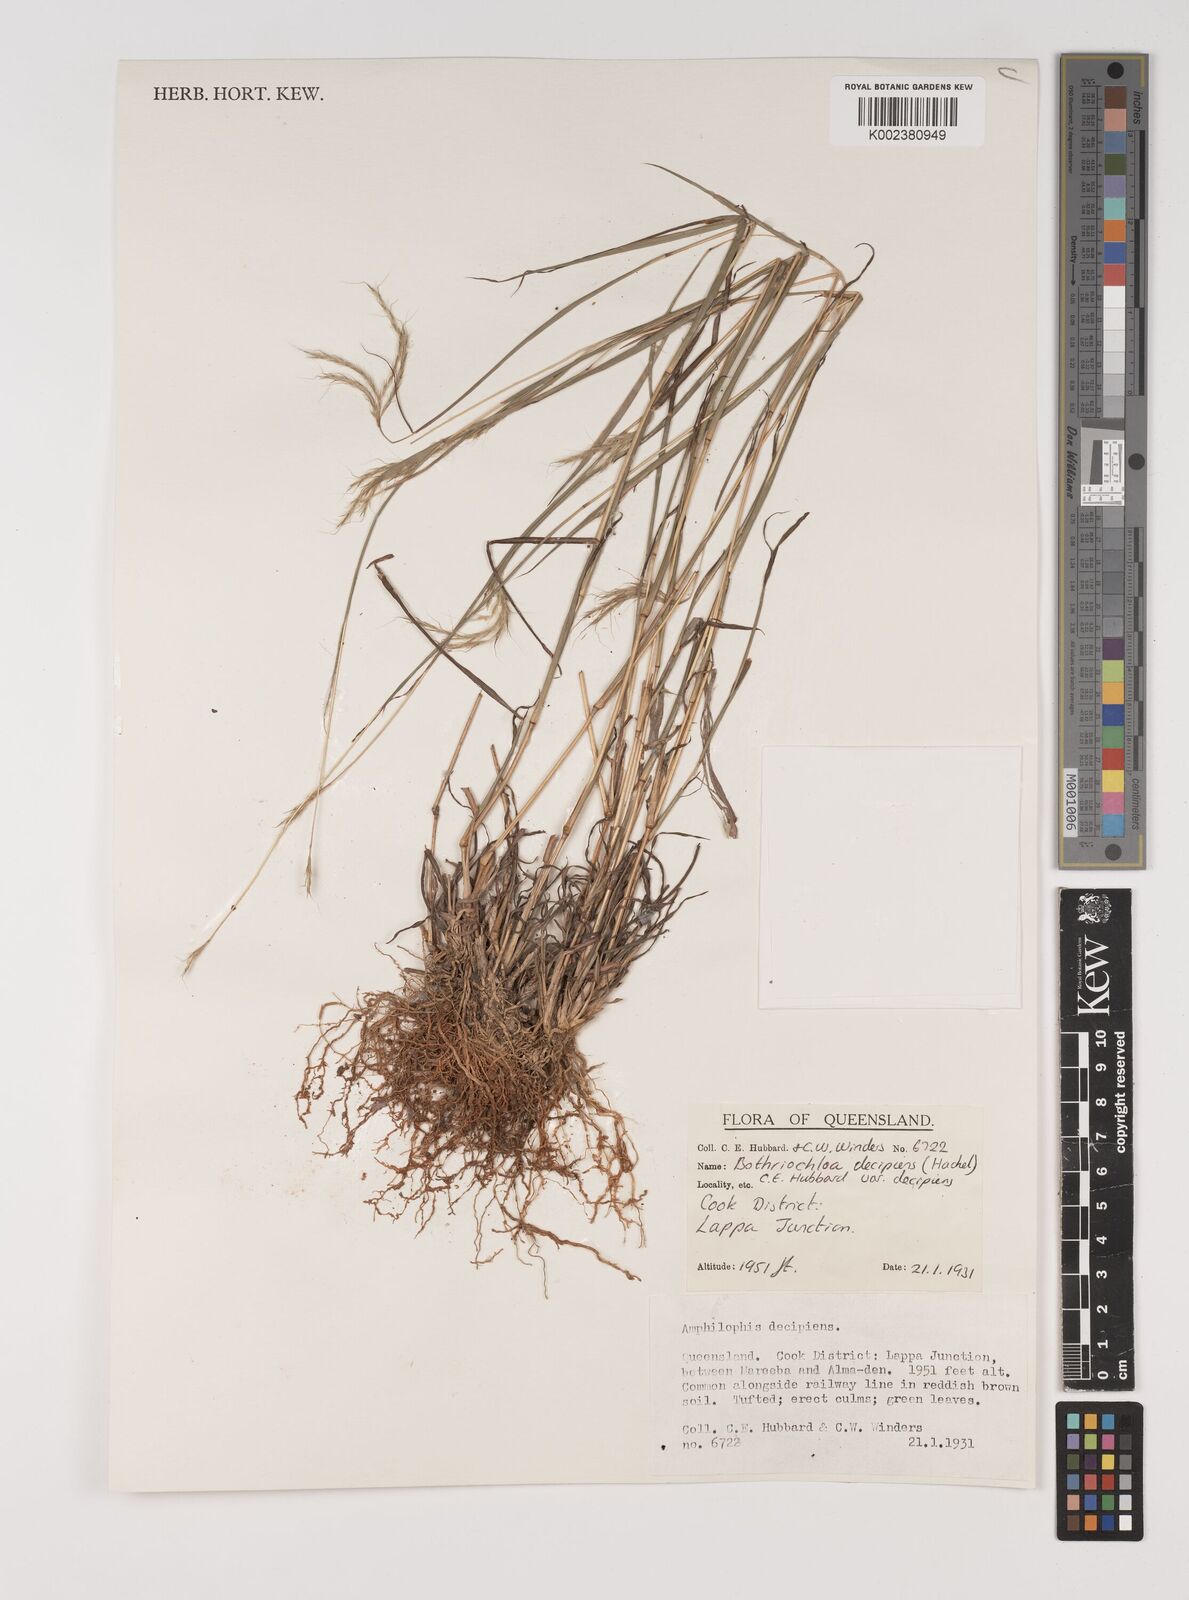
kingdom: Plantae
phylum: Tracheophyta
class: Liliopsida
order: Poales
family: Poaceae
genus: Bothriochloa
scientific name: Bothriochloa decipiens
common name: Pitted-bluegrass
